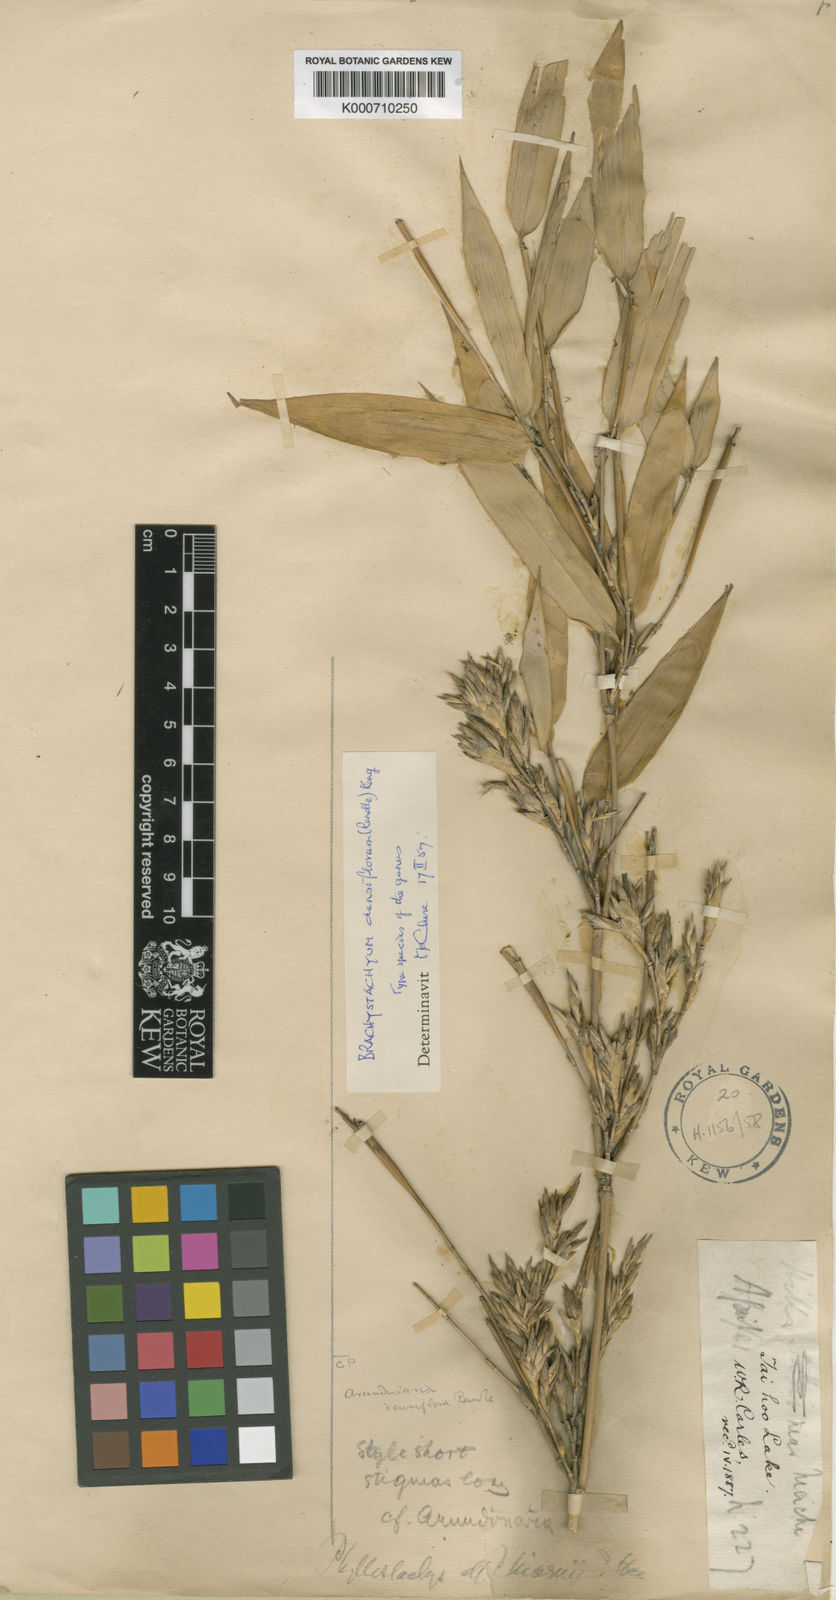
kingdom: Plantae
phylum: Tracheophyta
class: Liliopsida
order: Poales
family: Poaceae
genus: Brachystachyum
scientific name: Brachystachyum densiflorum
